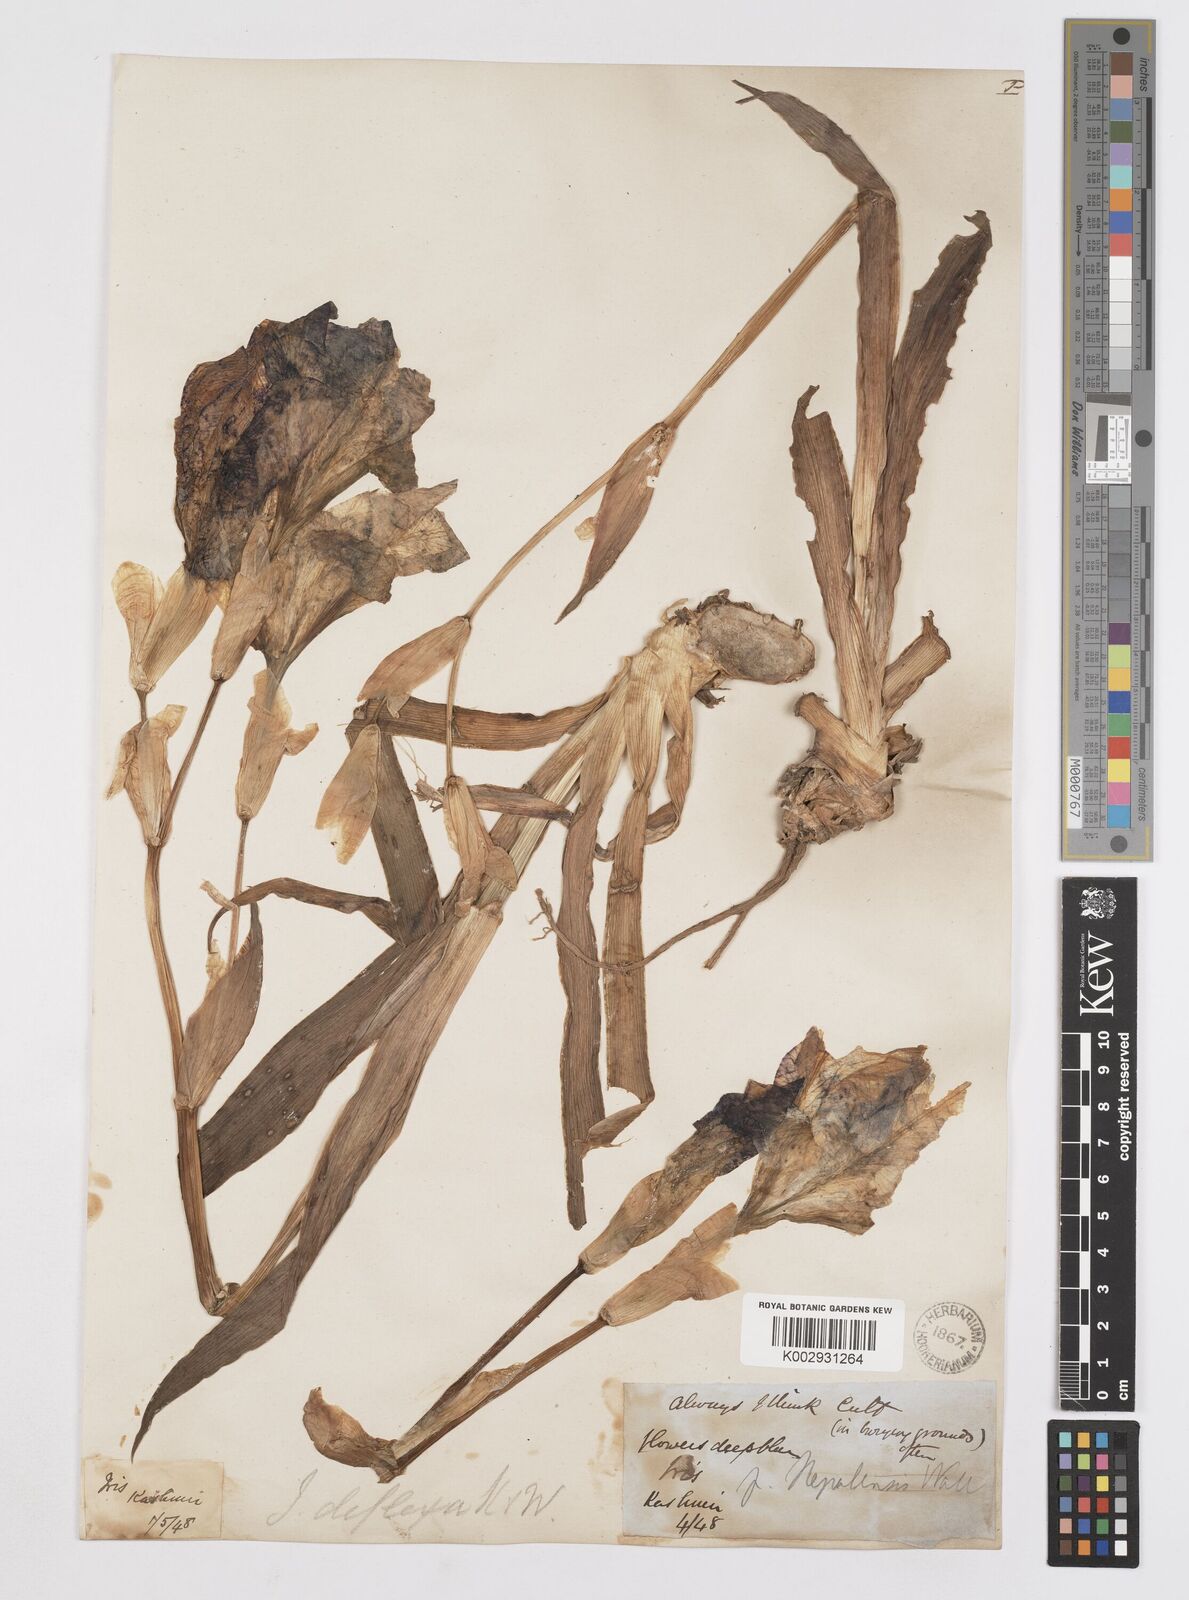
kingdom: Plantae
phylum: Tracheophyta
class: Liliopsida
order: Asparagales
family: Iridaceae
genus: Iris
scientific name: Iris germanica
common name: German iris
